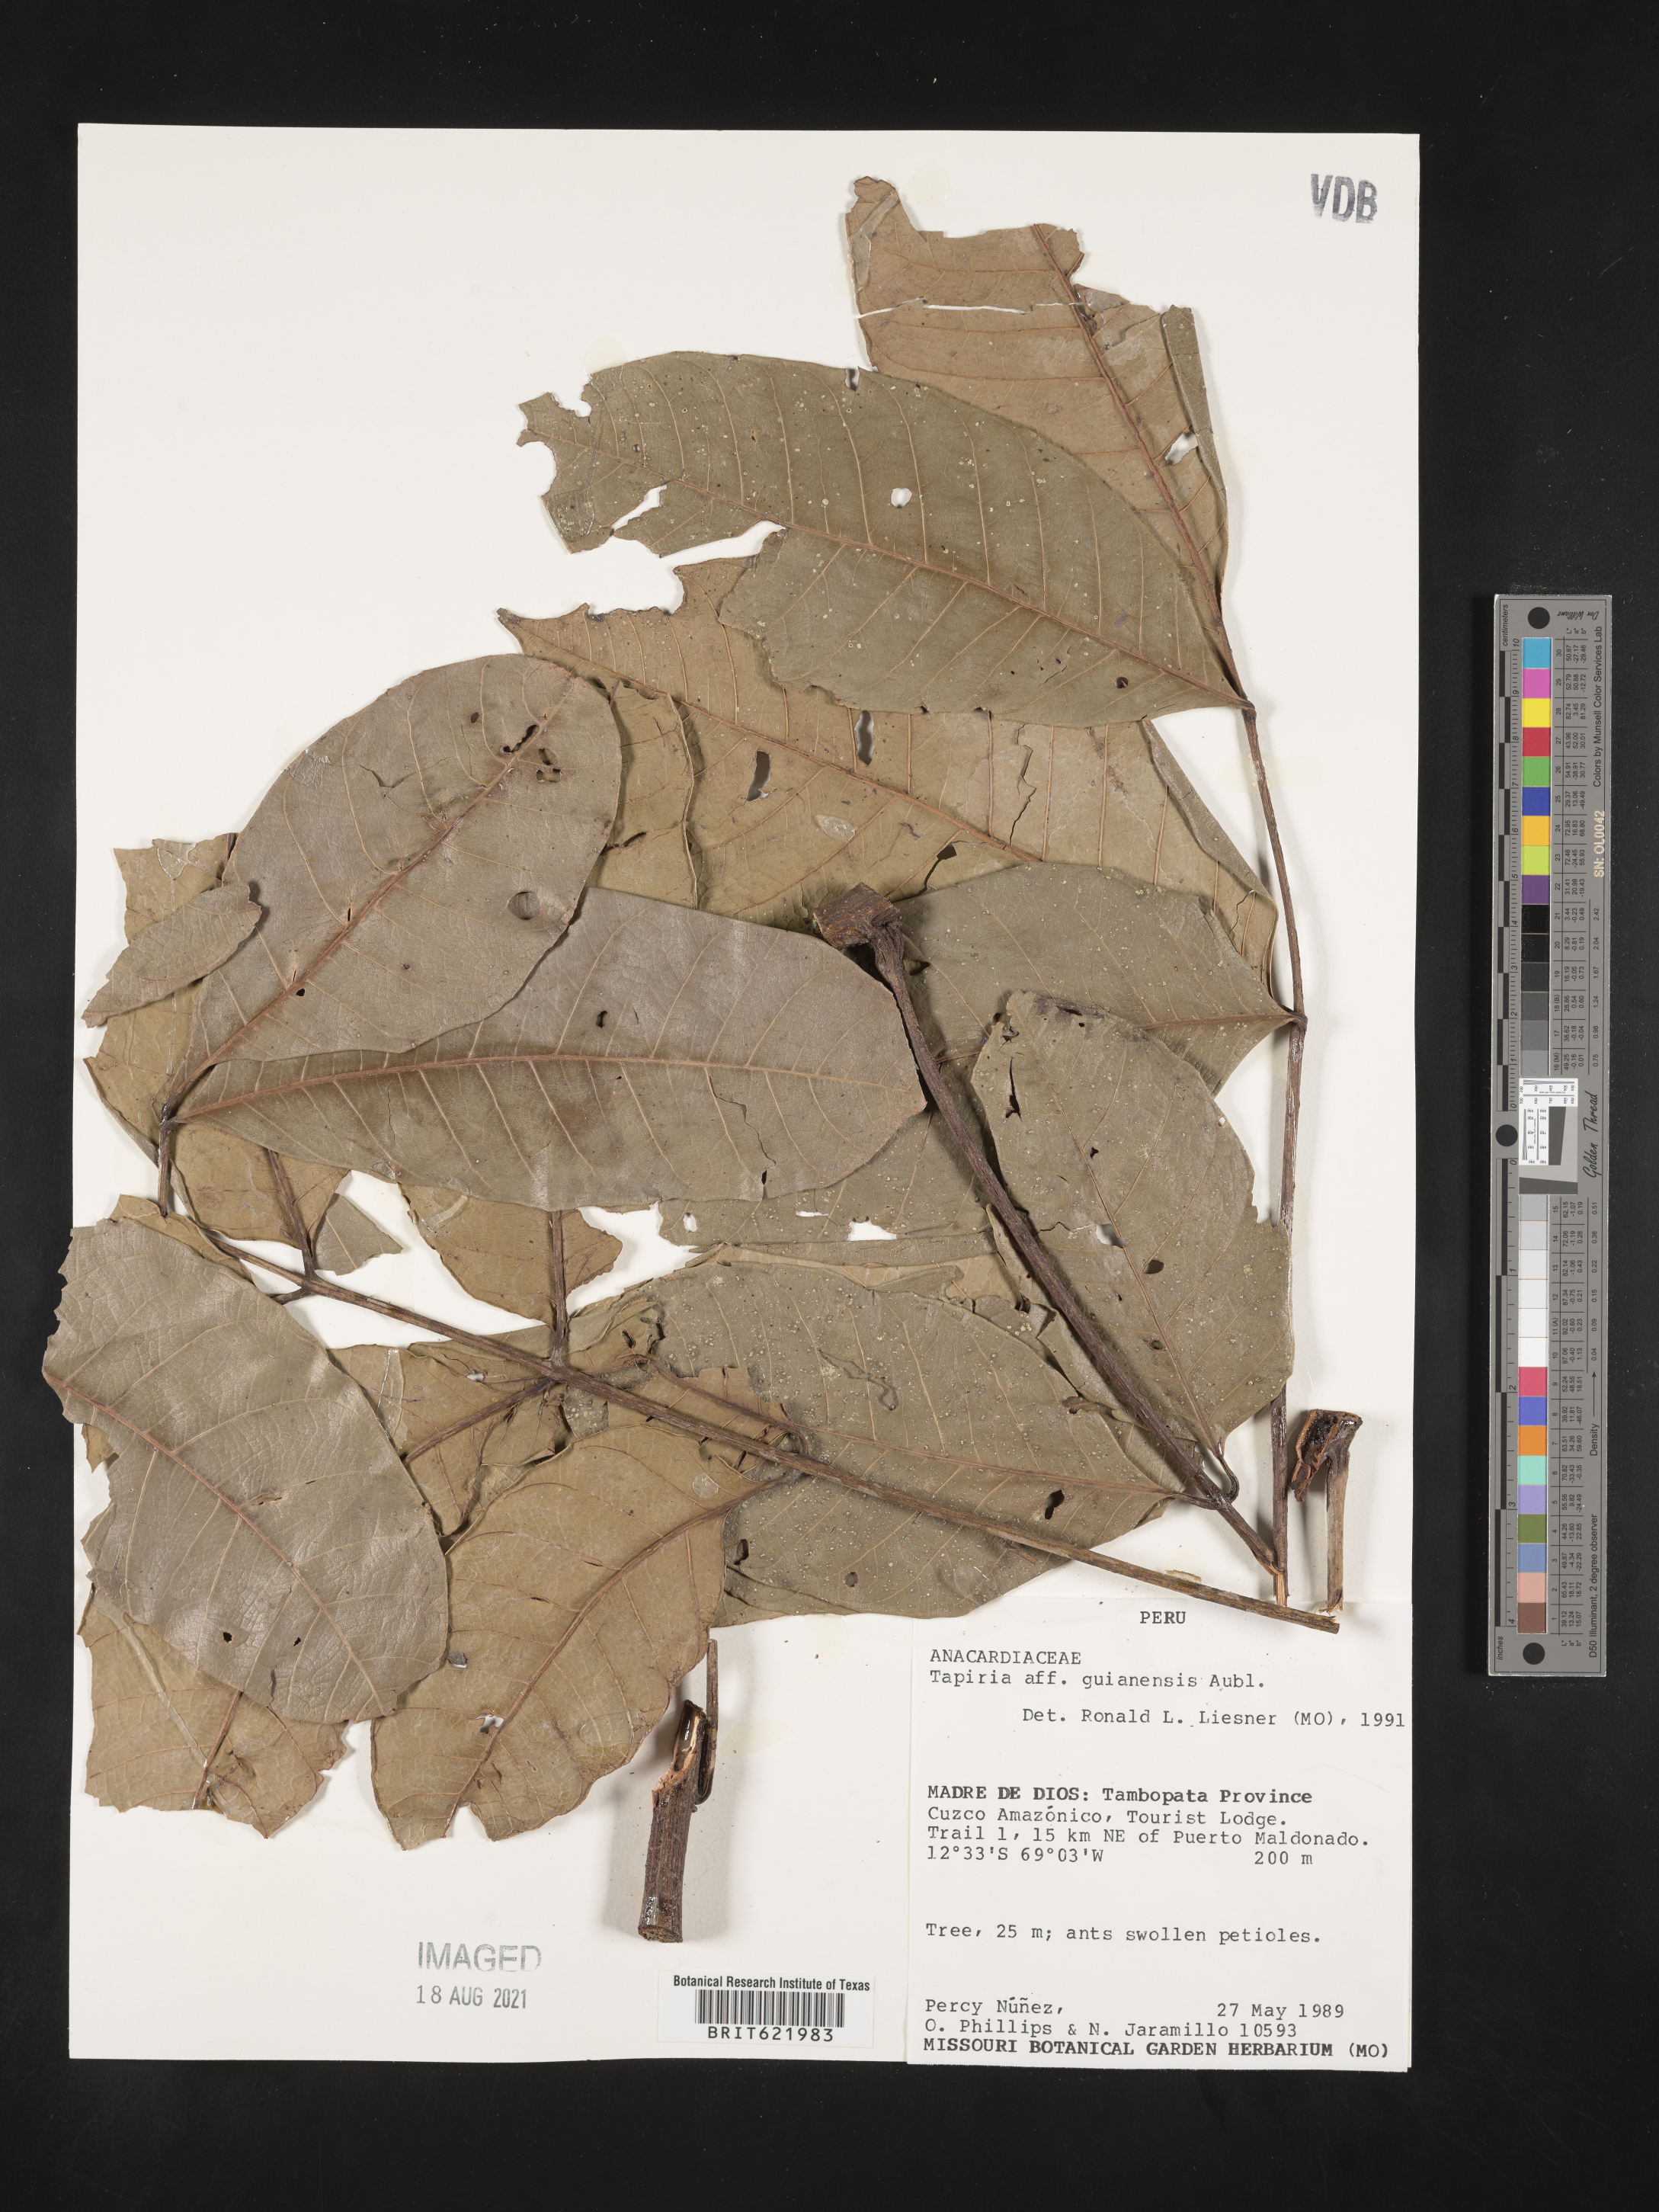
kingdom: Plantae
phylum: Tracheophyta
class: Magnoliopsida
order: Sapindales
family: Anacardiaceae
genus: Tapirira
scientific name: Tapirira guianensis
